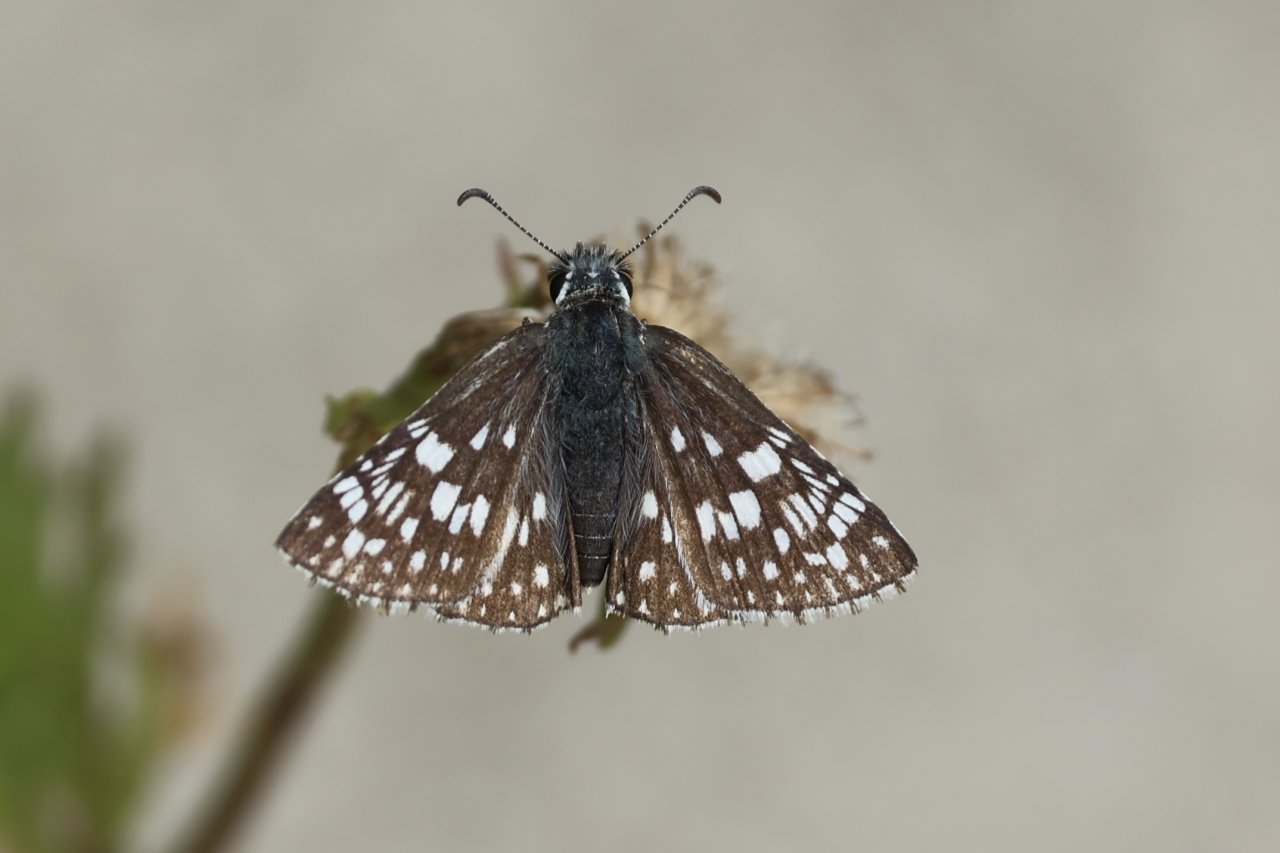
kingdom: Animalia
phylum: Arthropoda
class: Insecta
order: Lepidoptera
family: Hesperiidae
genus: Pyrgus
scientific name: Pyrgus
